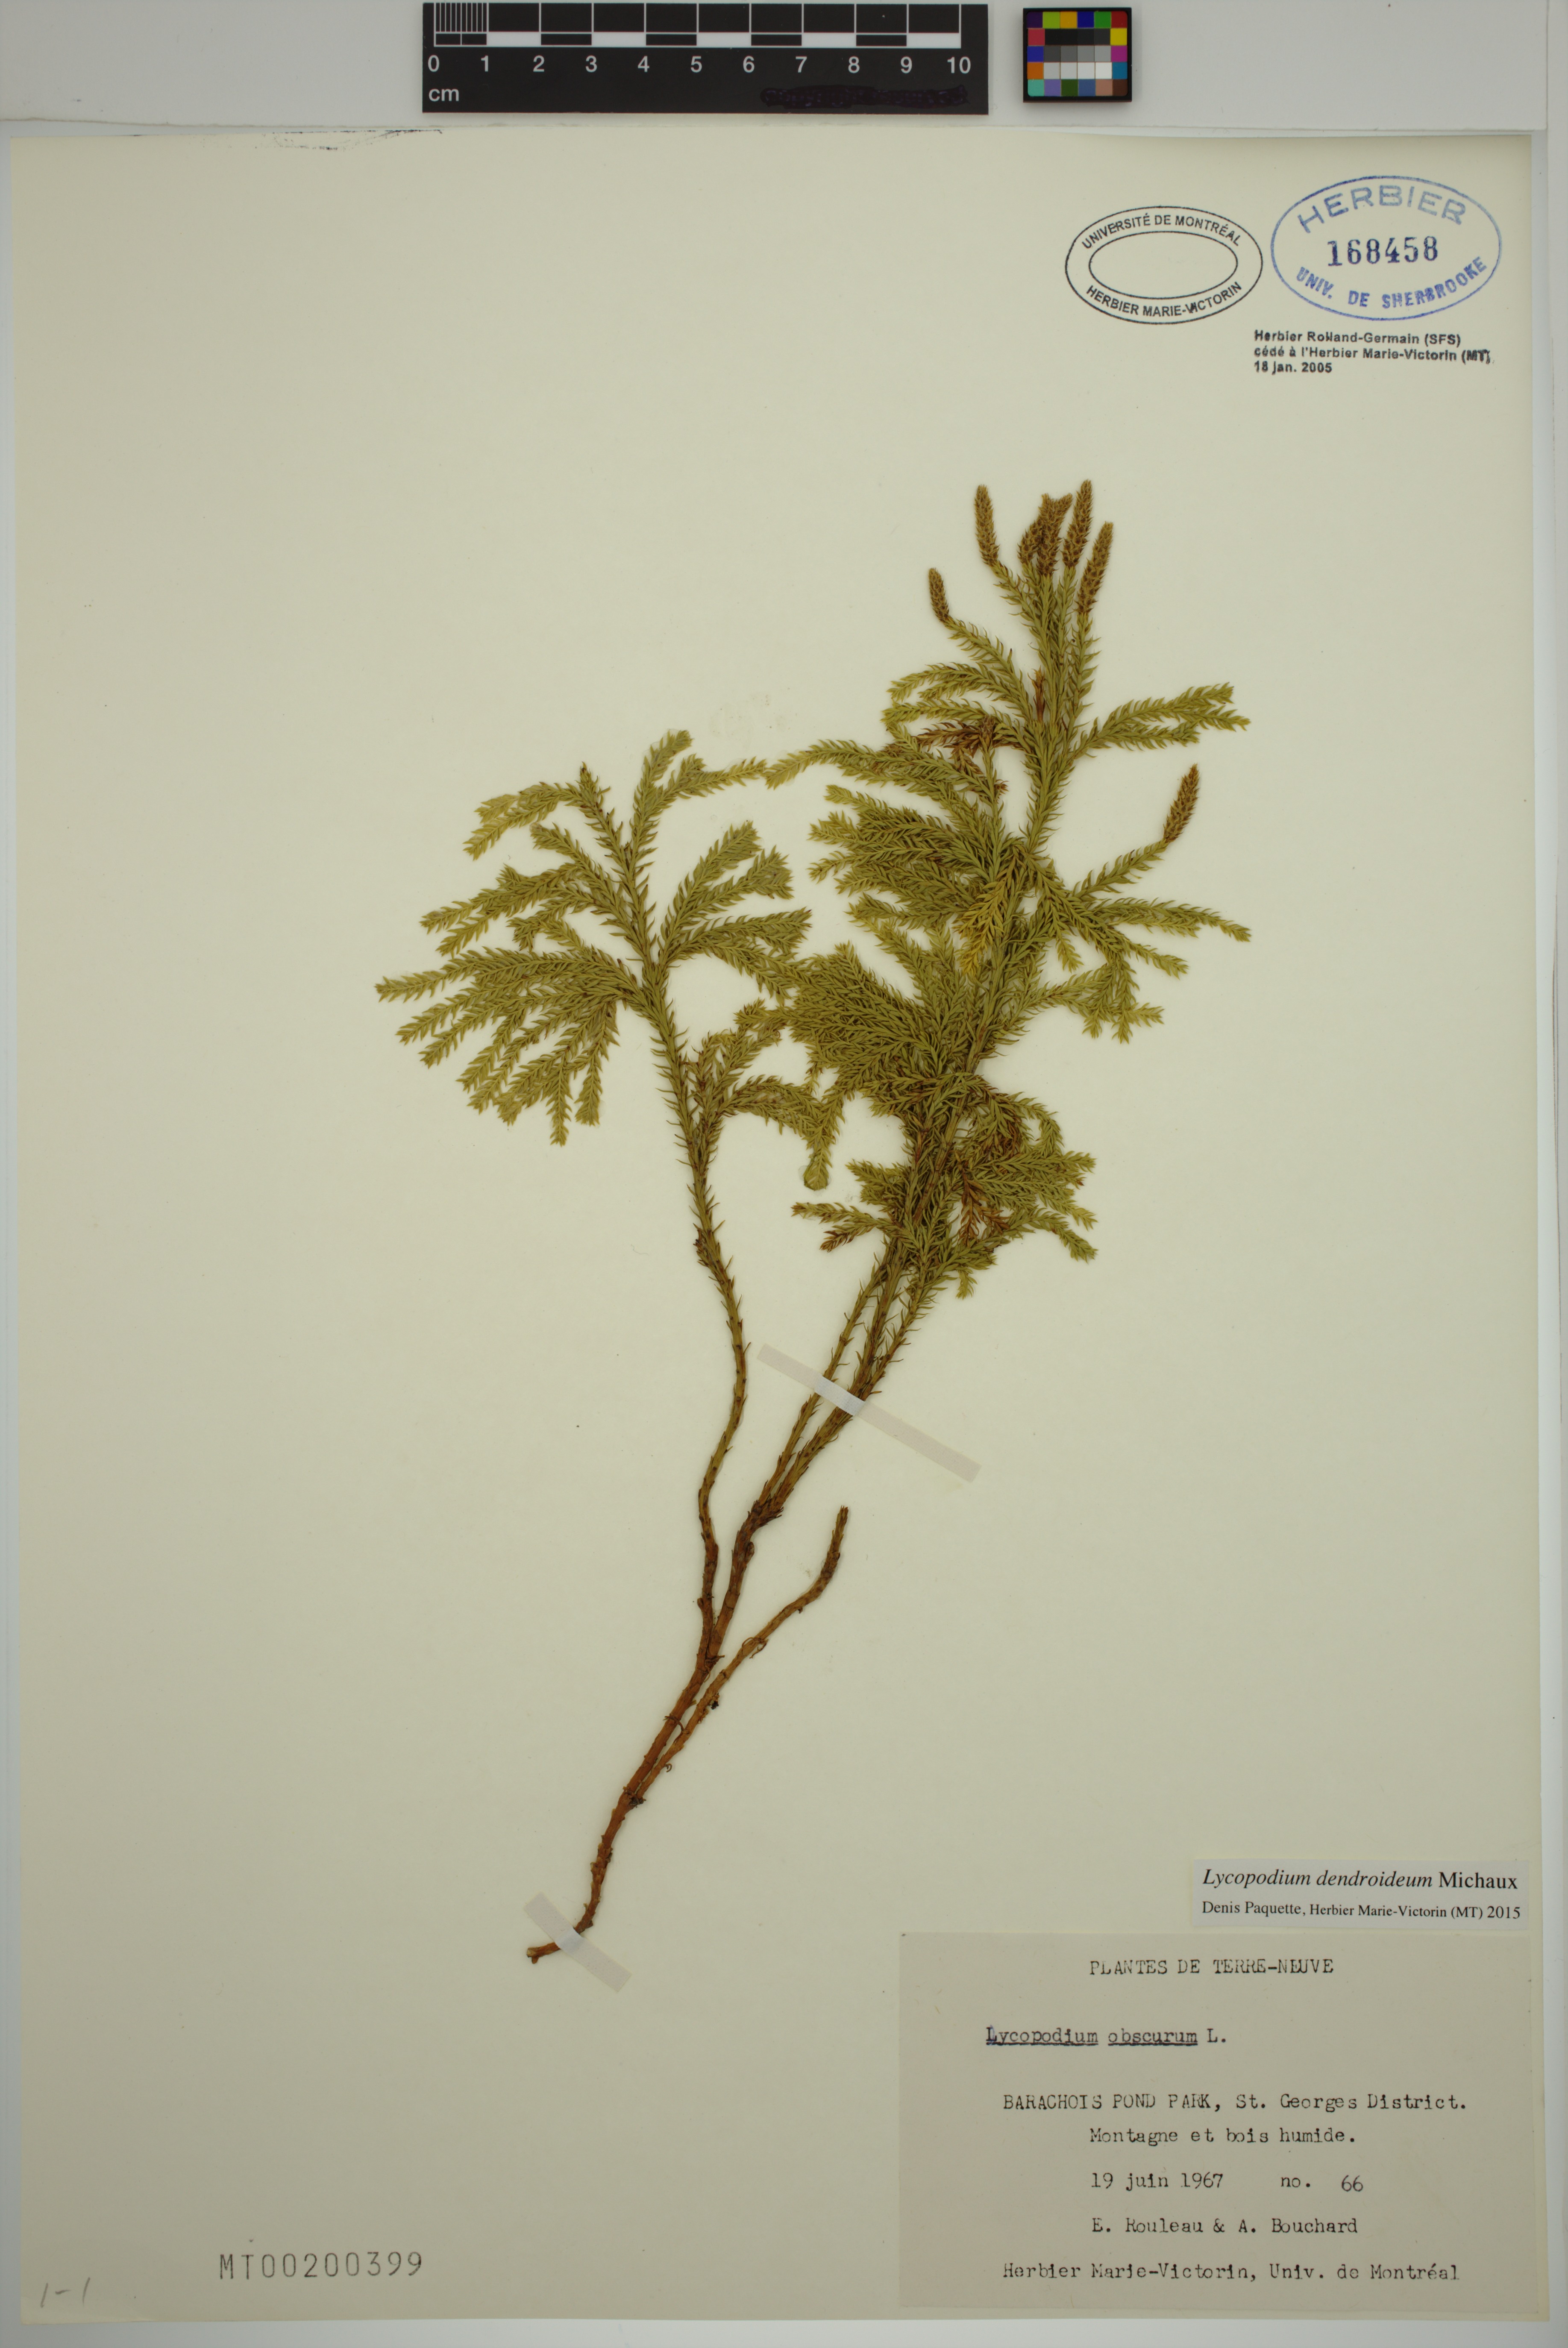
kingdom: Plantae
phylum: Tracheophyta
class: Lycopodiopsida
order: Lycopodiales
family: Lycopodiaceae
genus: Dendrolycopodium
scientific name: Dendrolycopodium dendroideum
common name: Northern tree-clubmoss
